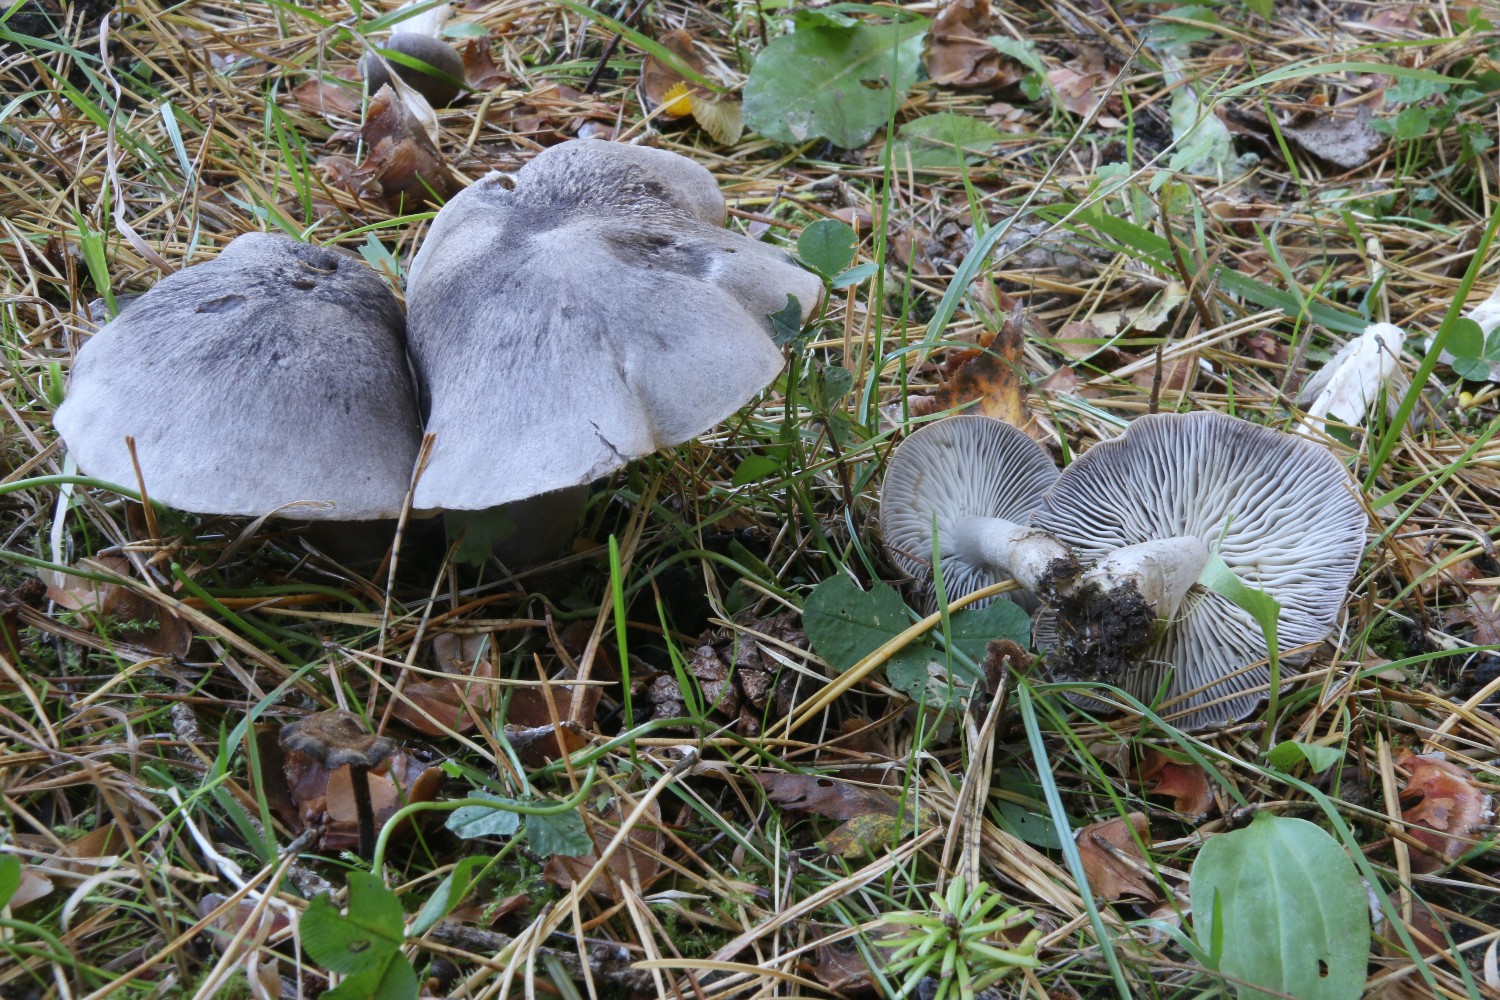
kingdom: Fungi
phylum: Basidiomycota
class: Agaricomycetes
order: Agaricales
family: Tricholomataceae
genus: Tricholoma
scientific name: Tricholoma terreum
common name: jordfarvet ridderhat
